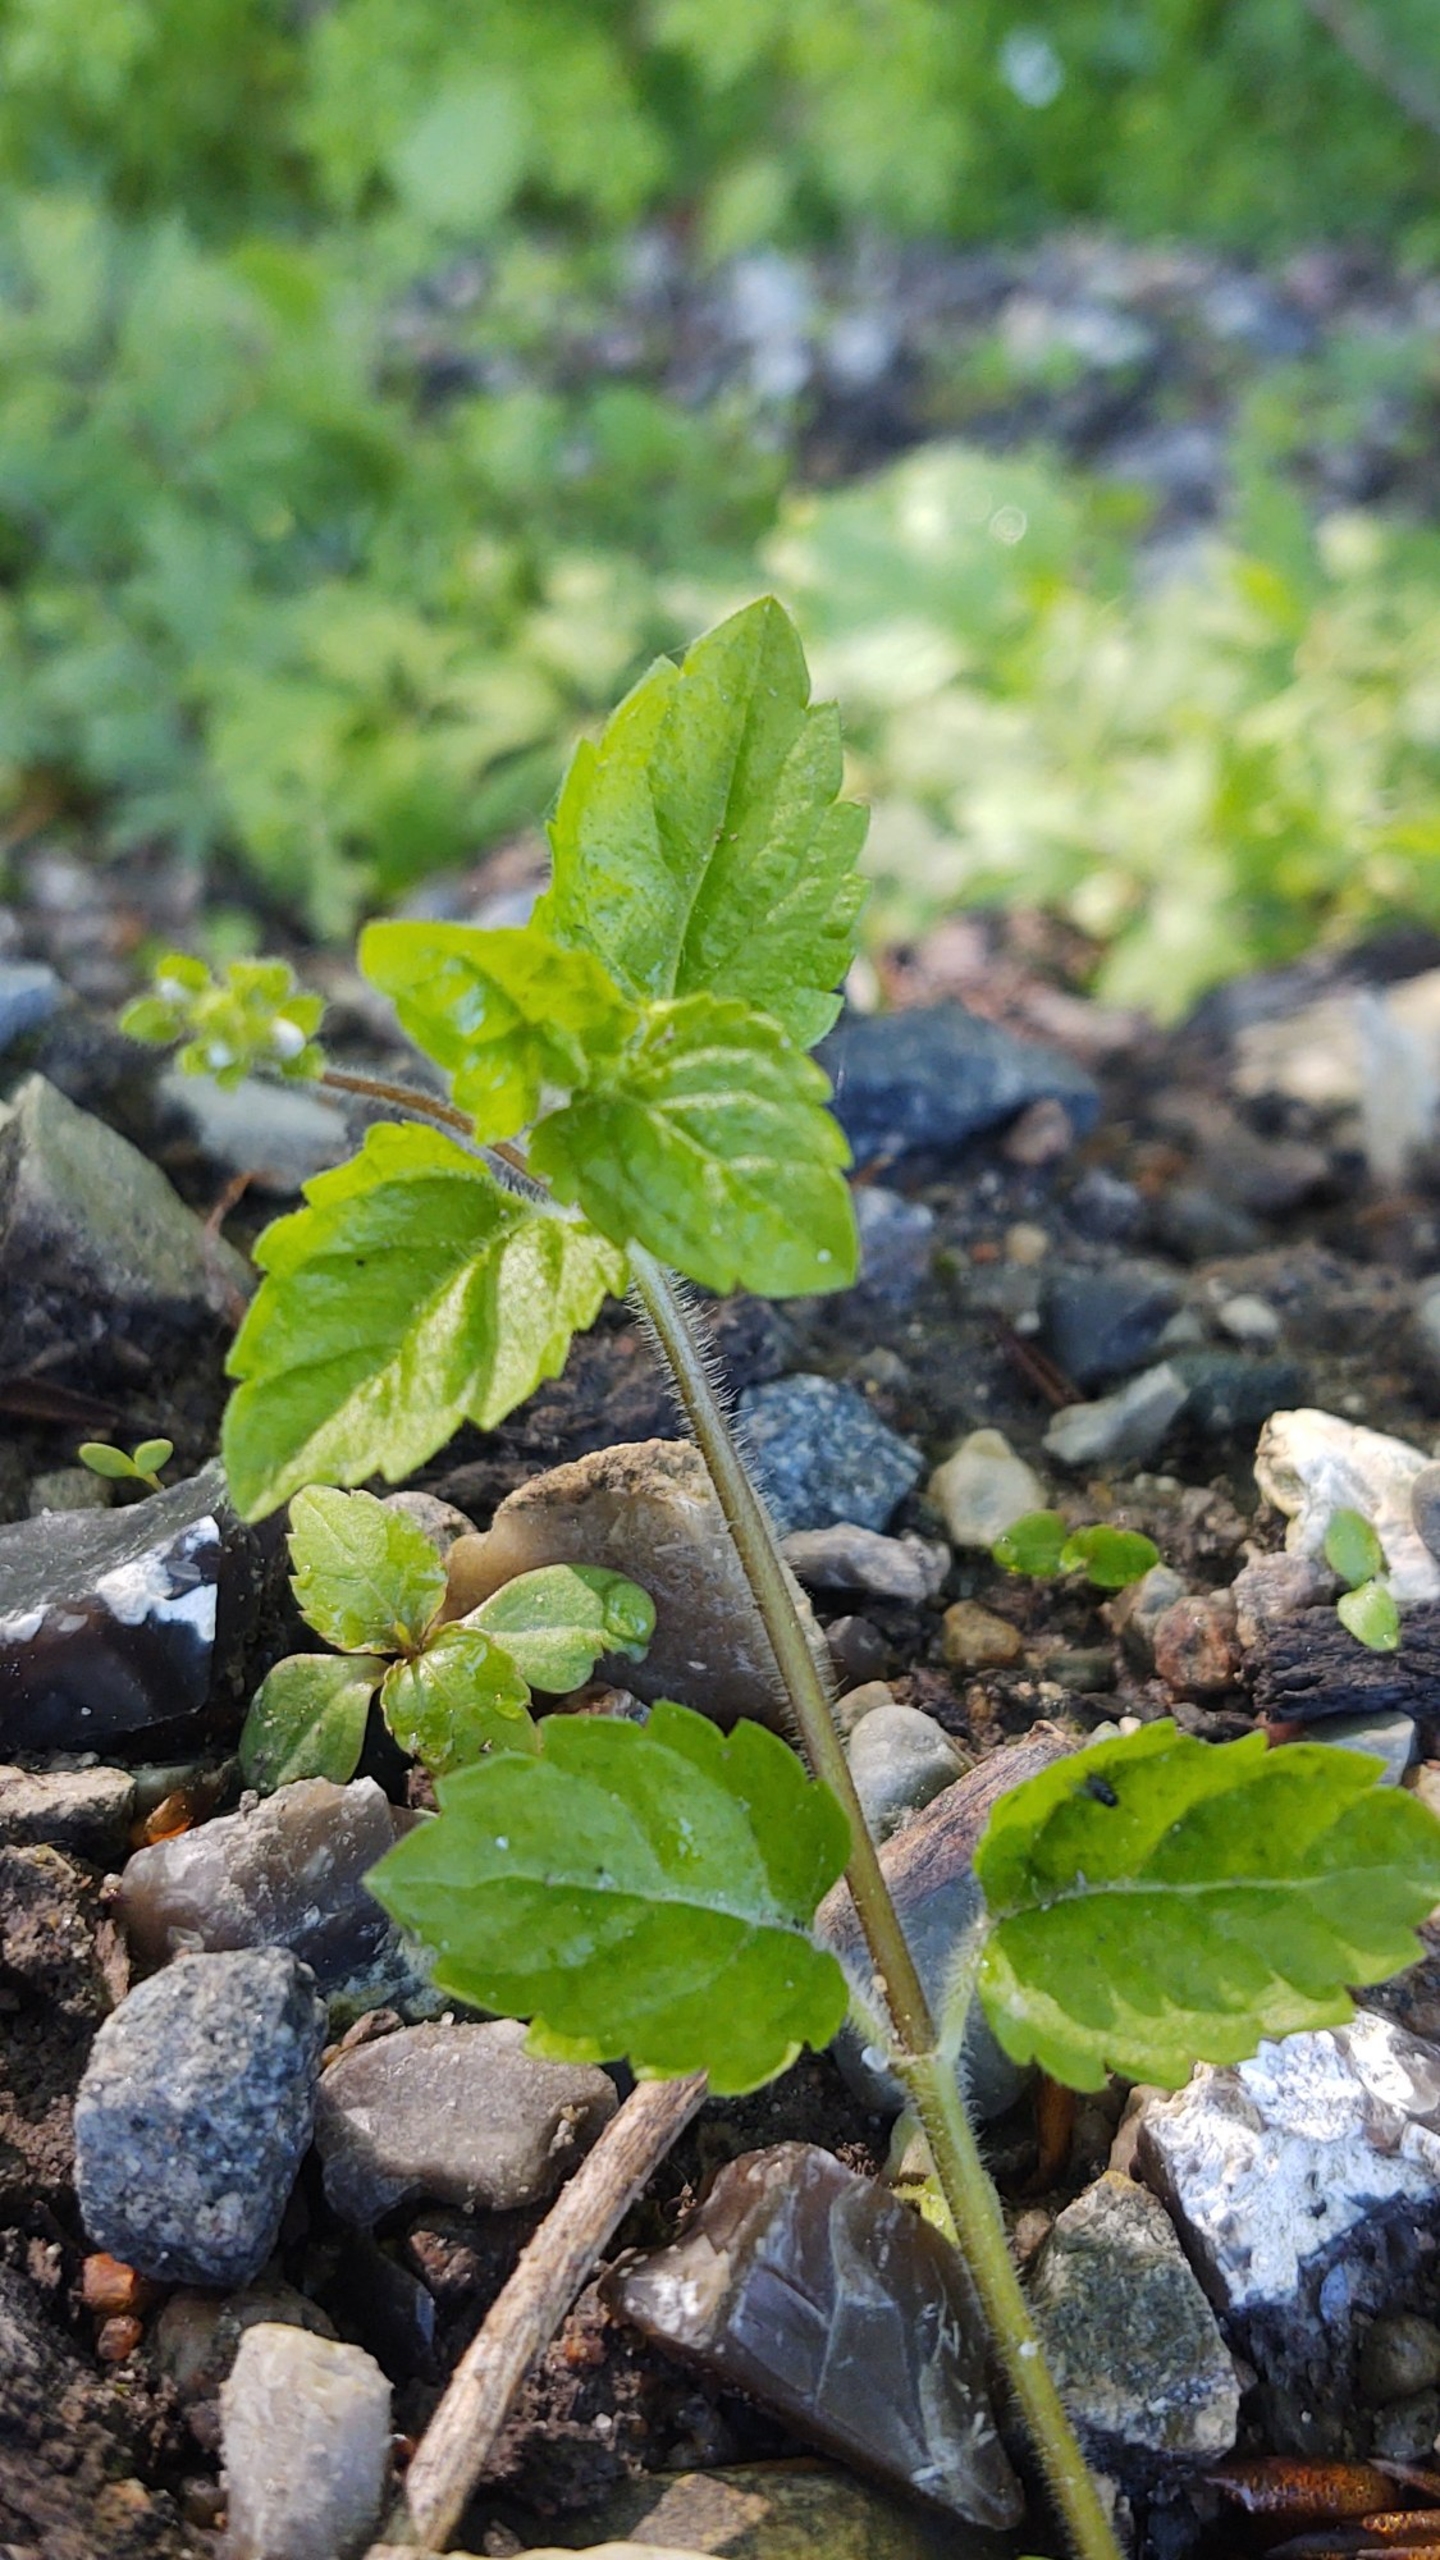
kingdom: Plantae
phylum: Tracheophyta
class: Magnoliopsida
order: Lamiales
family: Plantaginaceae
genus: Veronica
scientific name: Veronica montana
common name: Bjerg-ærenpris
